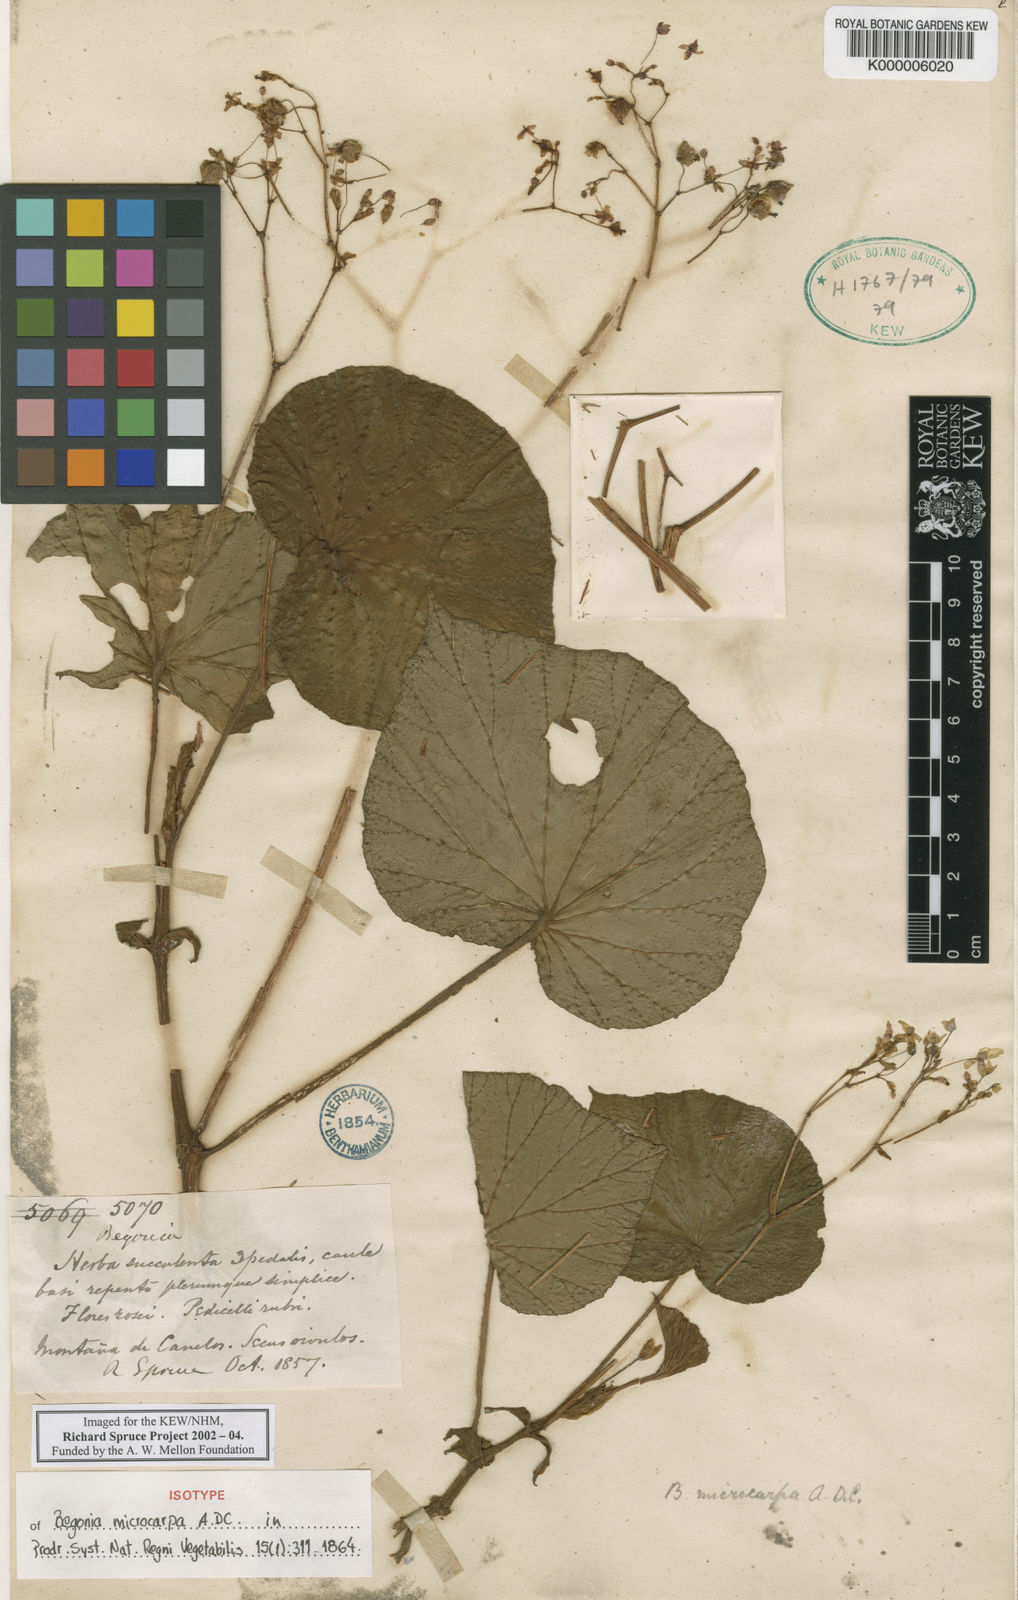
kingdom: Plantae
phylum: Tracheophyta
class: Magnoliopsida
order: Cucurbitales
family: Begoniaceae
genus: Begonia
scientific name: Begonia microcarpa
